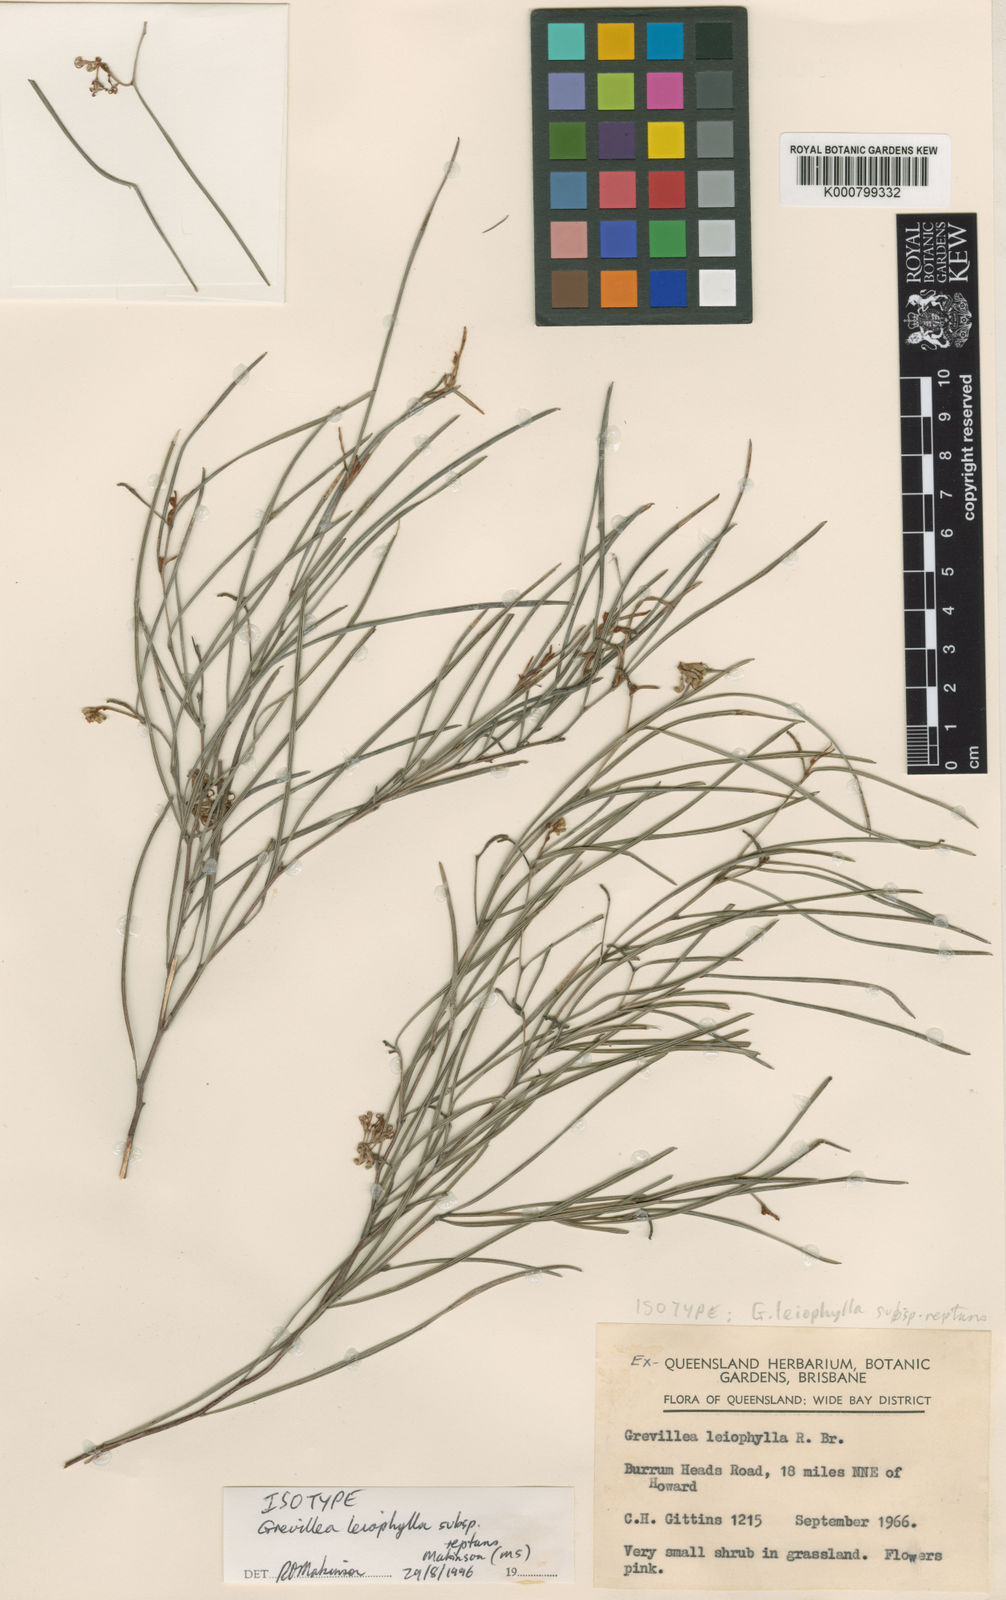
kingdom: Plantae
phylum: Tracheophyta
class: Magnoliopsida
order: Proteales
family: Proteaceae
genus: Grevillea
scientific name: Grevillea
